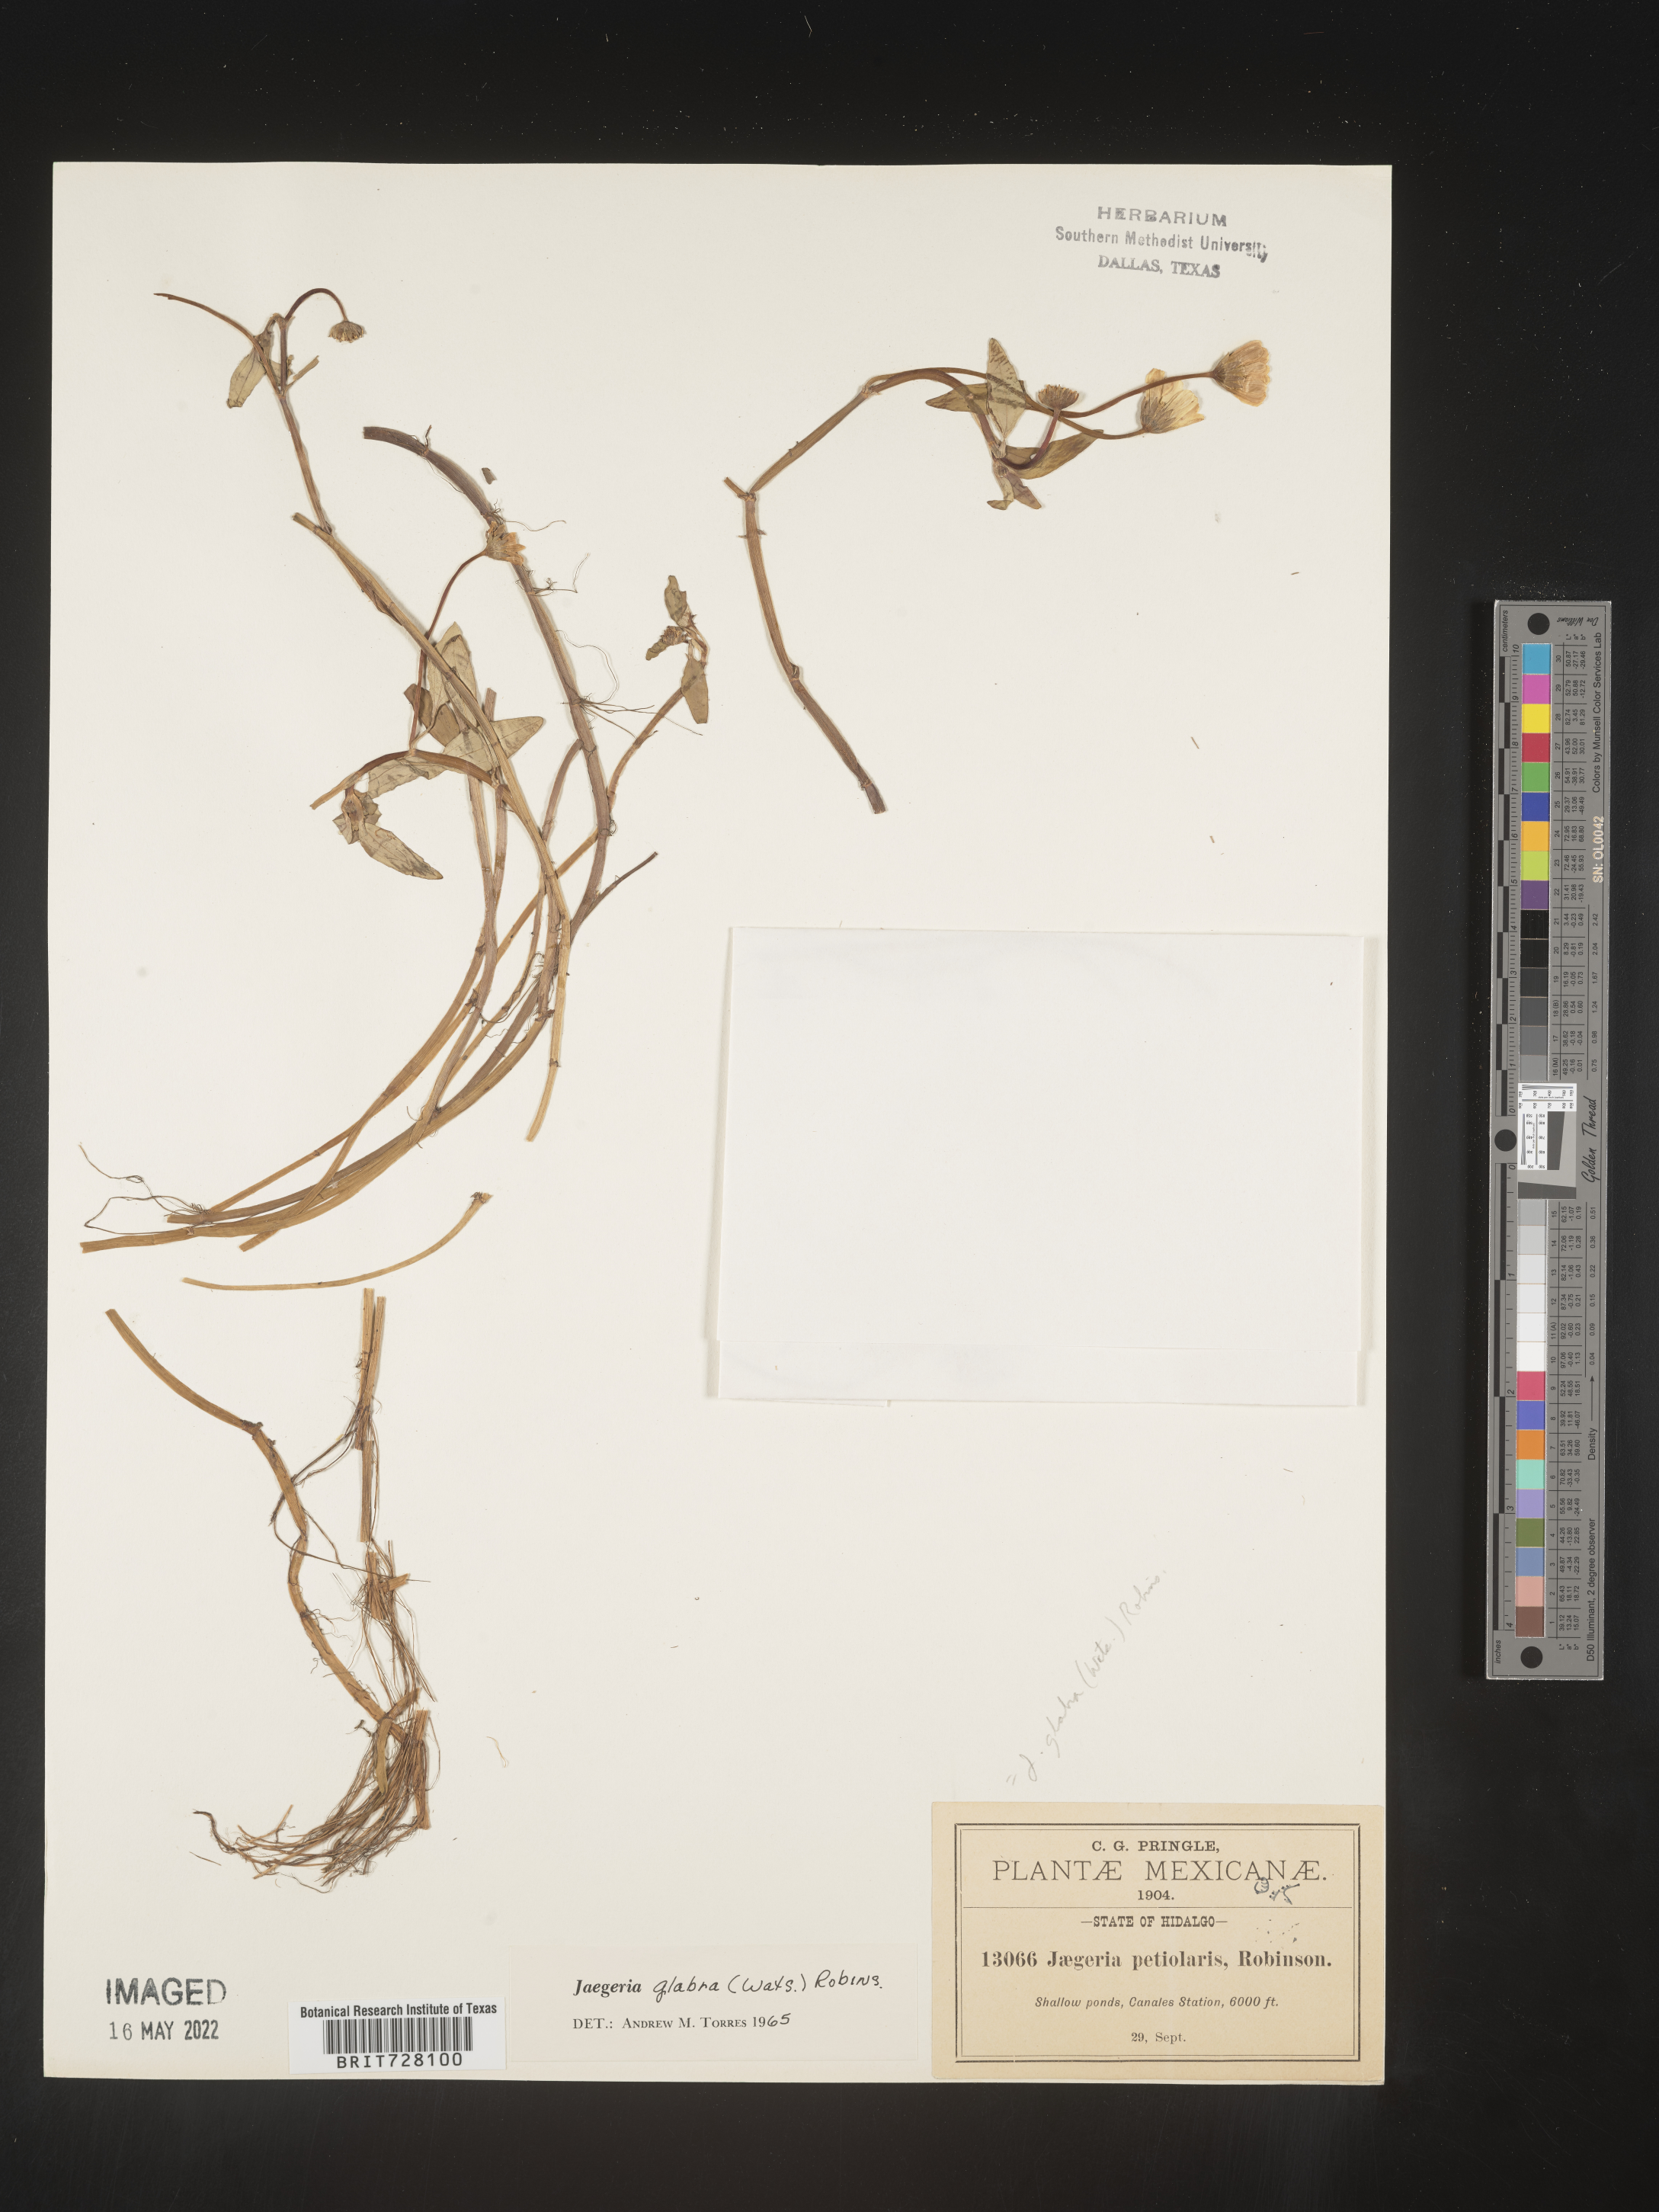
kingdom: Plantae
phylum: Tracheophyta
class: Magnoliopsida
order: Asterales
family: Asteraceae
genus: Jaegeria
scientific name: Jaegeria
